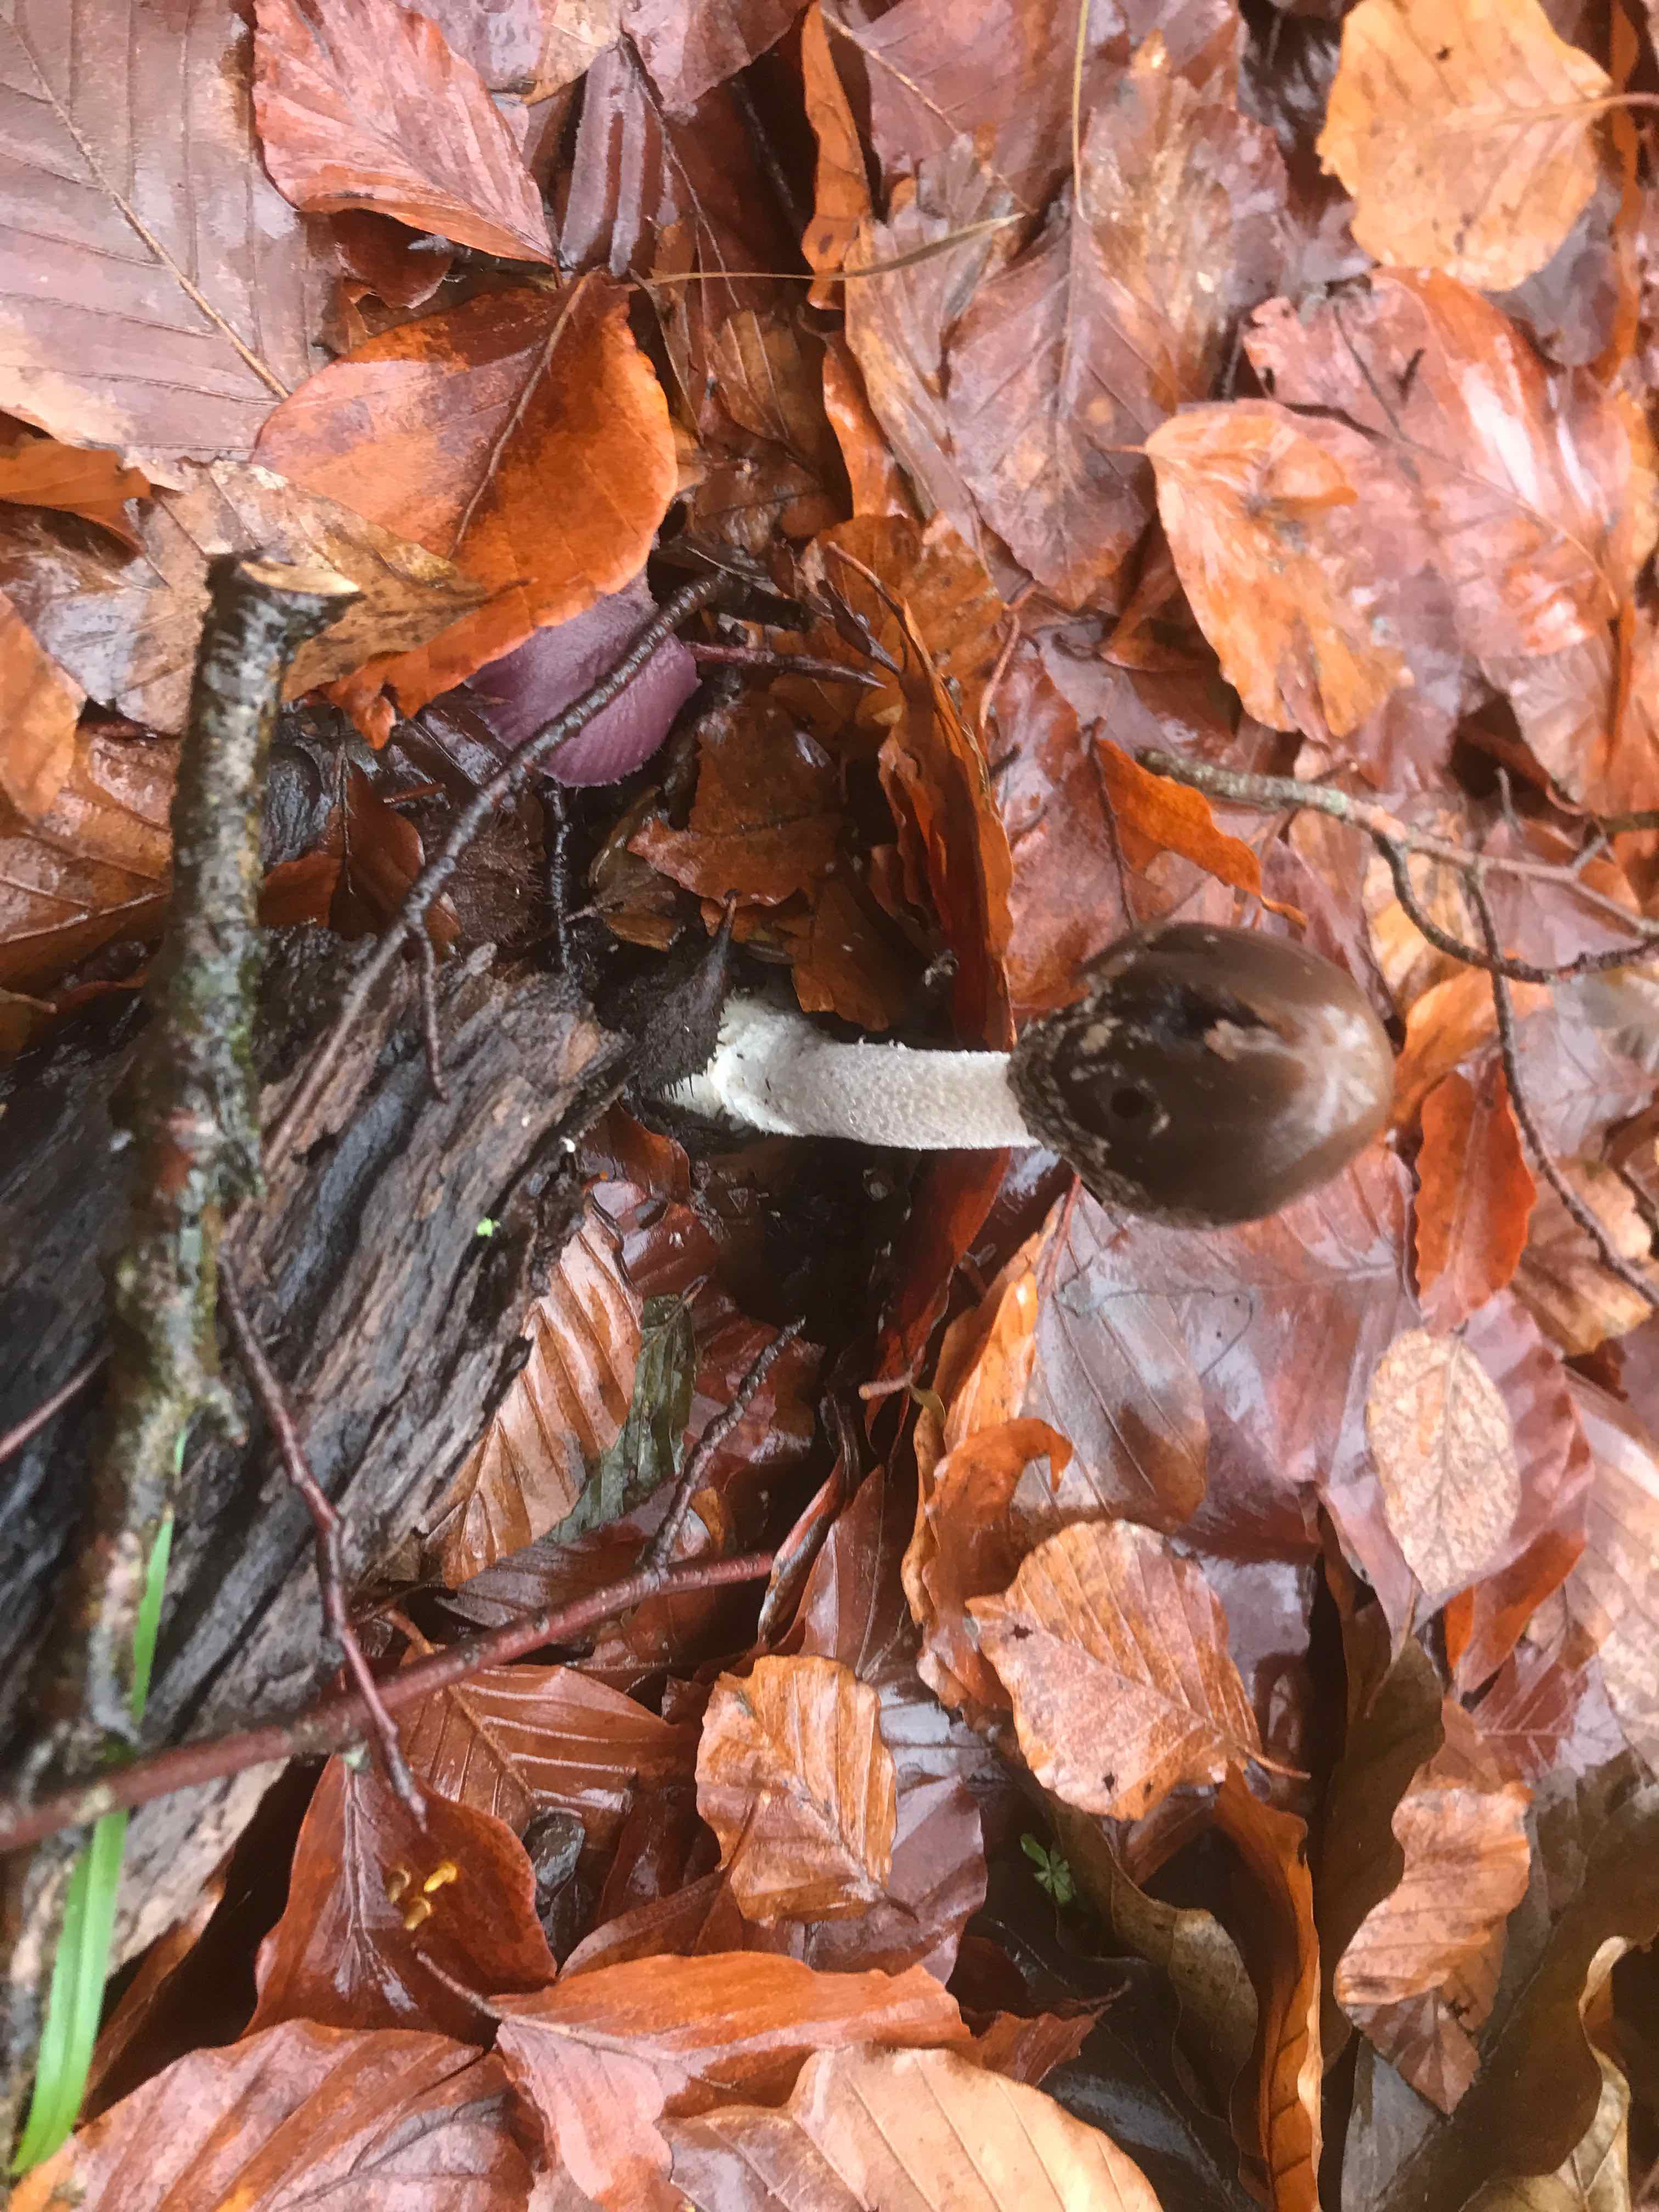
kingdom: Fungi
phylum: Basidiomycota
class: Agaricomycetes
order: Agaricales
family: Psathyrellaceae
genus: Coprinopsis
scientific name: Coprinopsis picacea
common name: skade-blækhat
